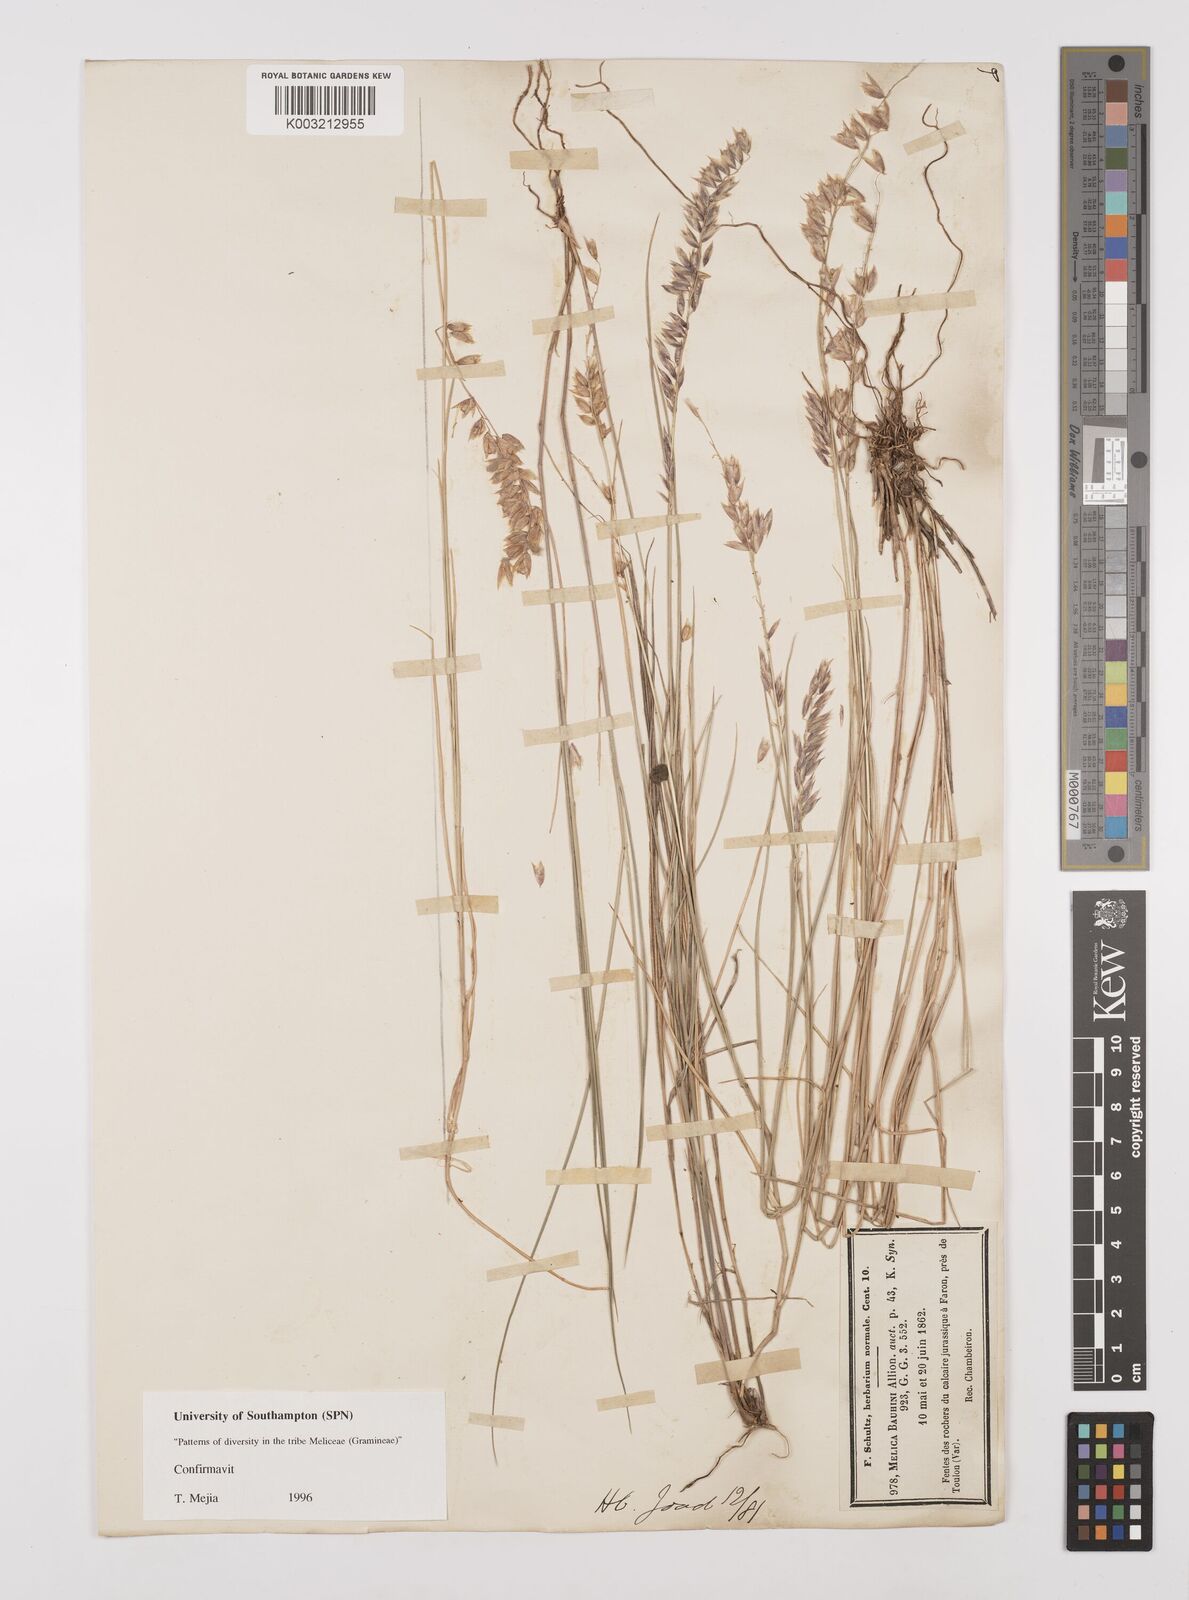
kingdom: Plantae
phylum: Tracheophyta
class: Liliopsida
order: Poales
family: Poaceae
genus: Melica
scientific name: Melica amethystina
